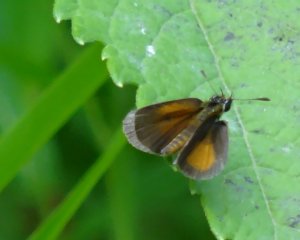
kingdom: Animalia
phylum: Arthropoda
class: Insecta
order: Lepidoptera
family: Hesperiidae
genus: Ancyloxypha
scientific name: Ancyloxypha numitor
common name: Least Skipper
